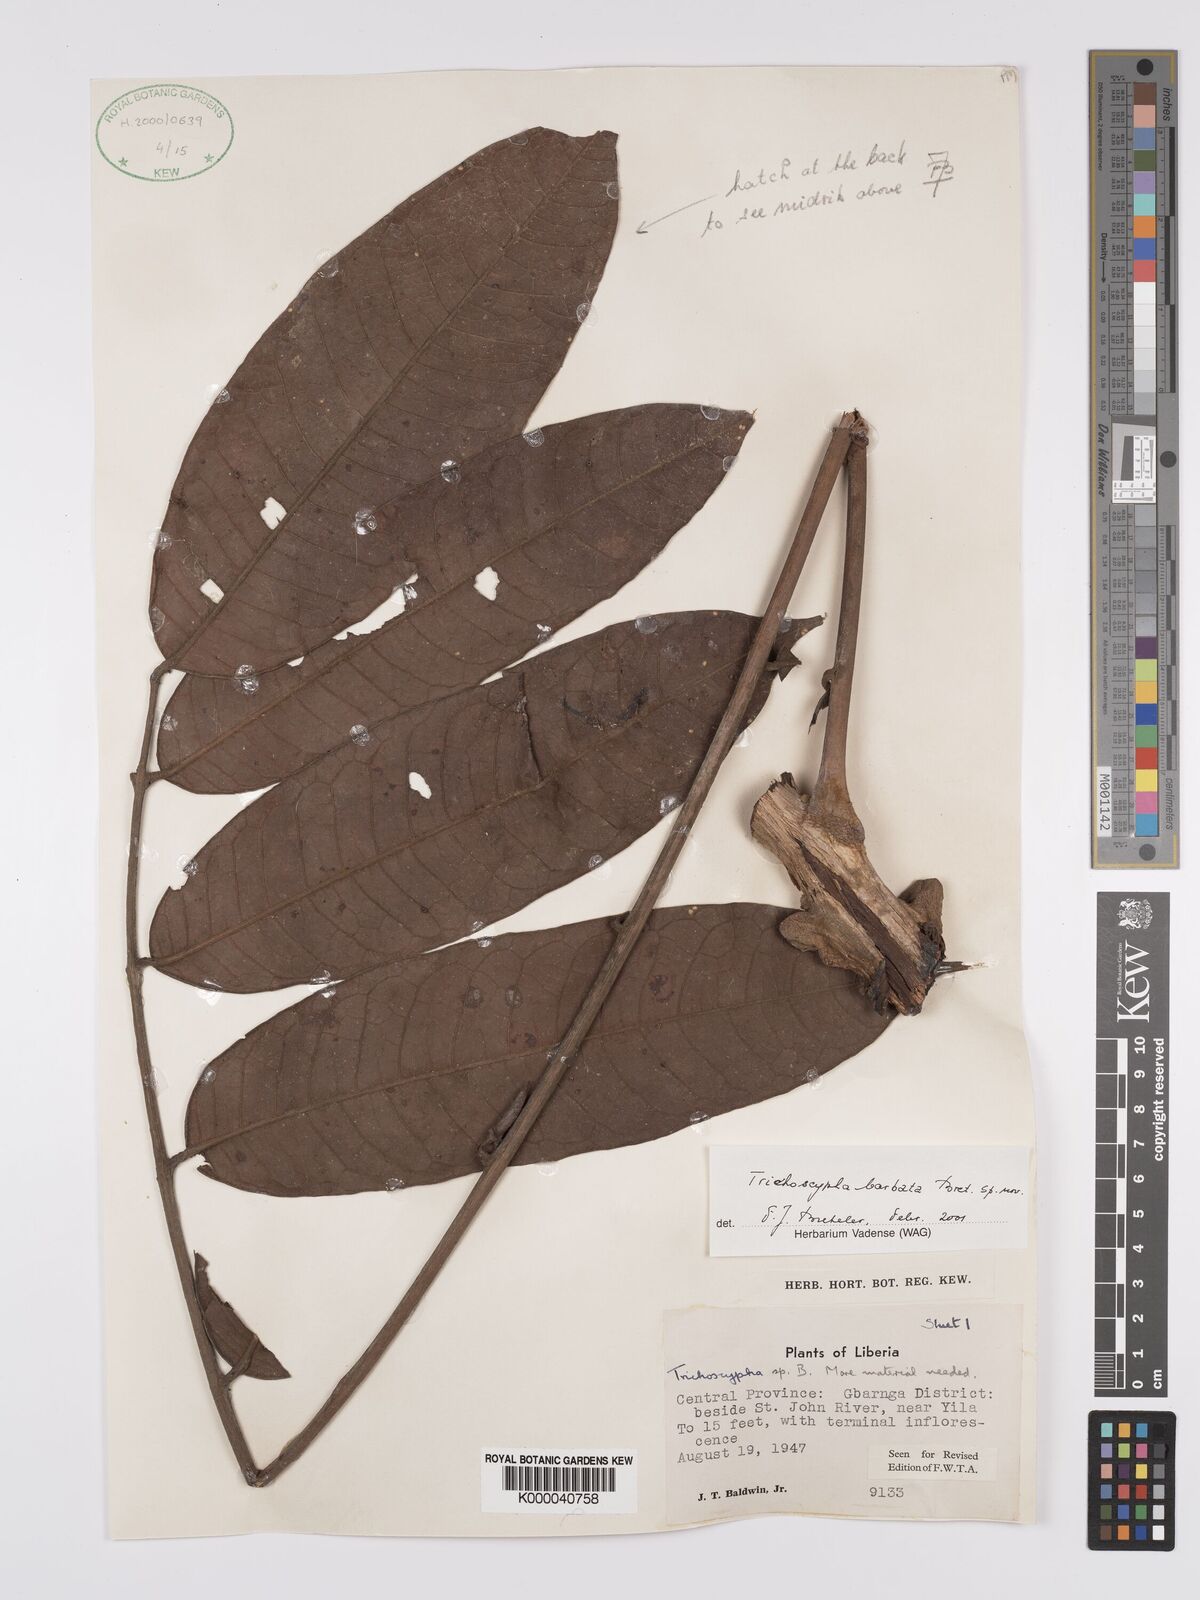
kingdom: Plantae
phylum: Tracheophyta
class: Magnoliopsida
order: Sapindales
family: Anacardiaceae
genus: Trichoscypha
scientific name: Trichoscypha barbata
